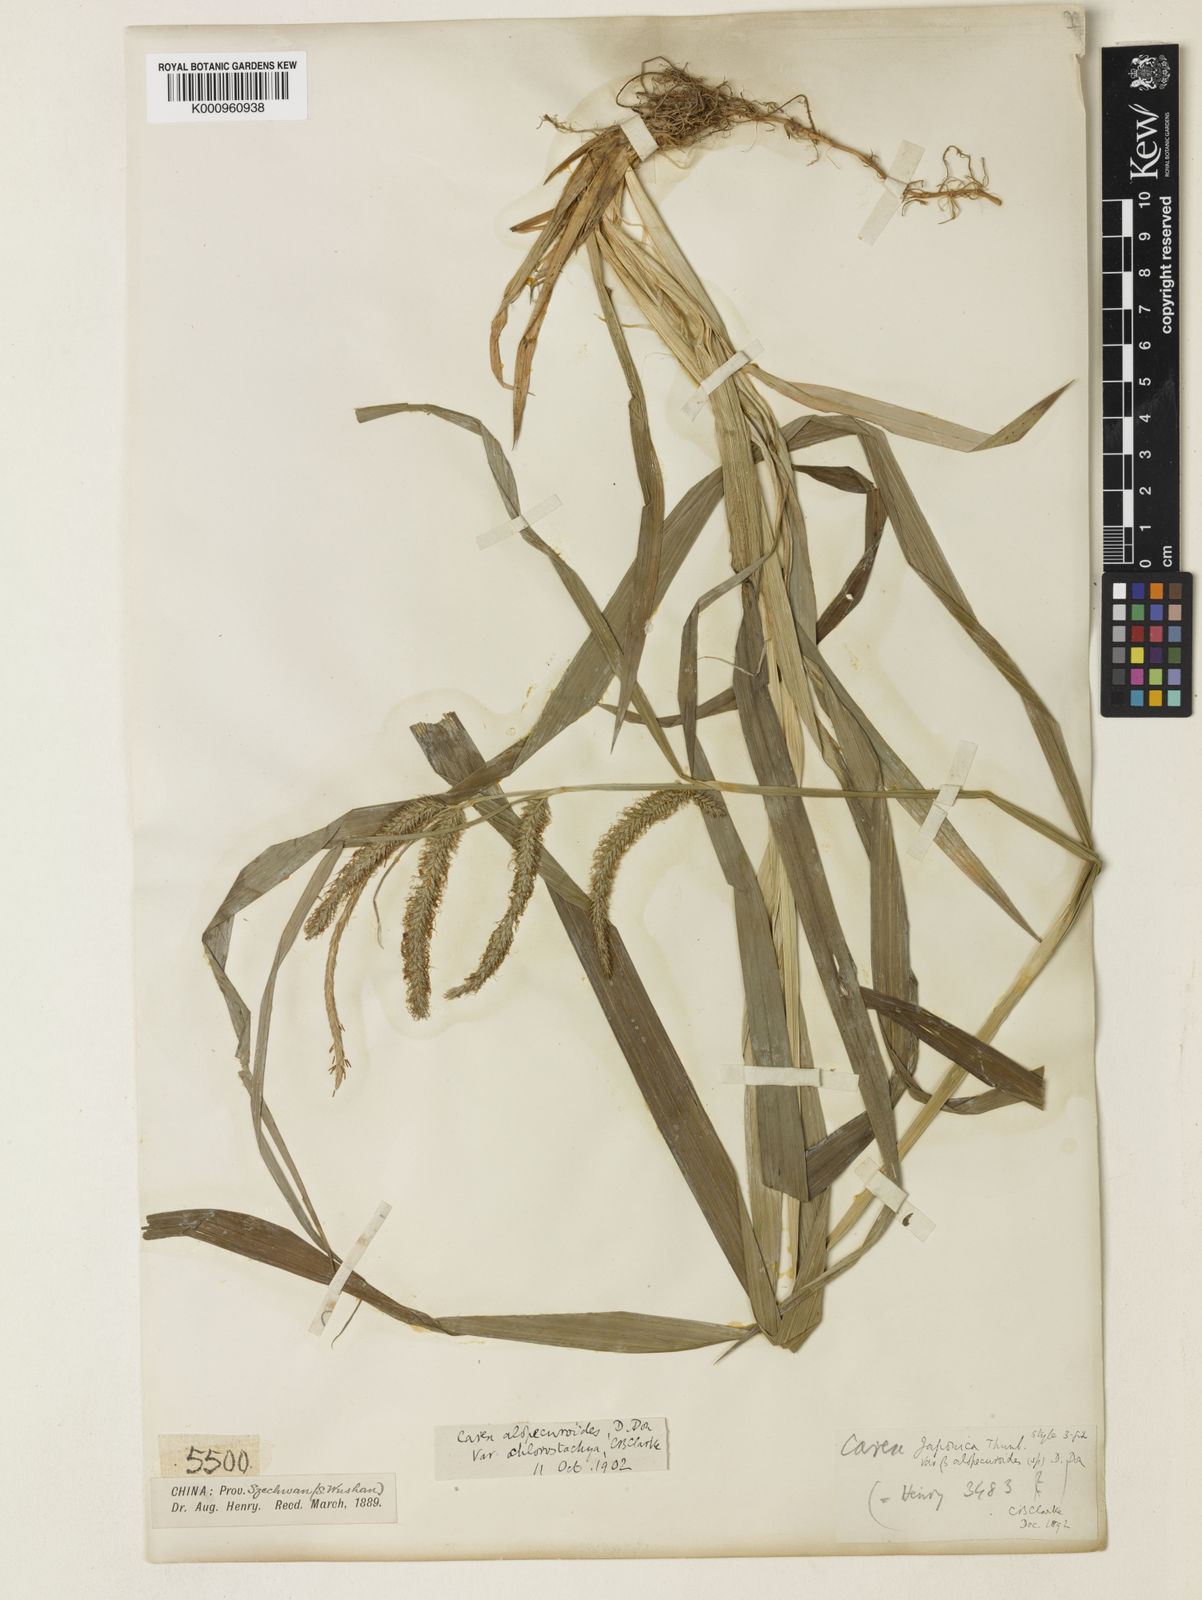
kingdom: Plantae
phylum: Tracheophyta
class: Liliopsida
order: Poales
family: Cyperaceae
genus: Carex
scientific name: Carex japonica
